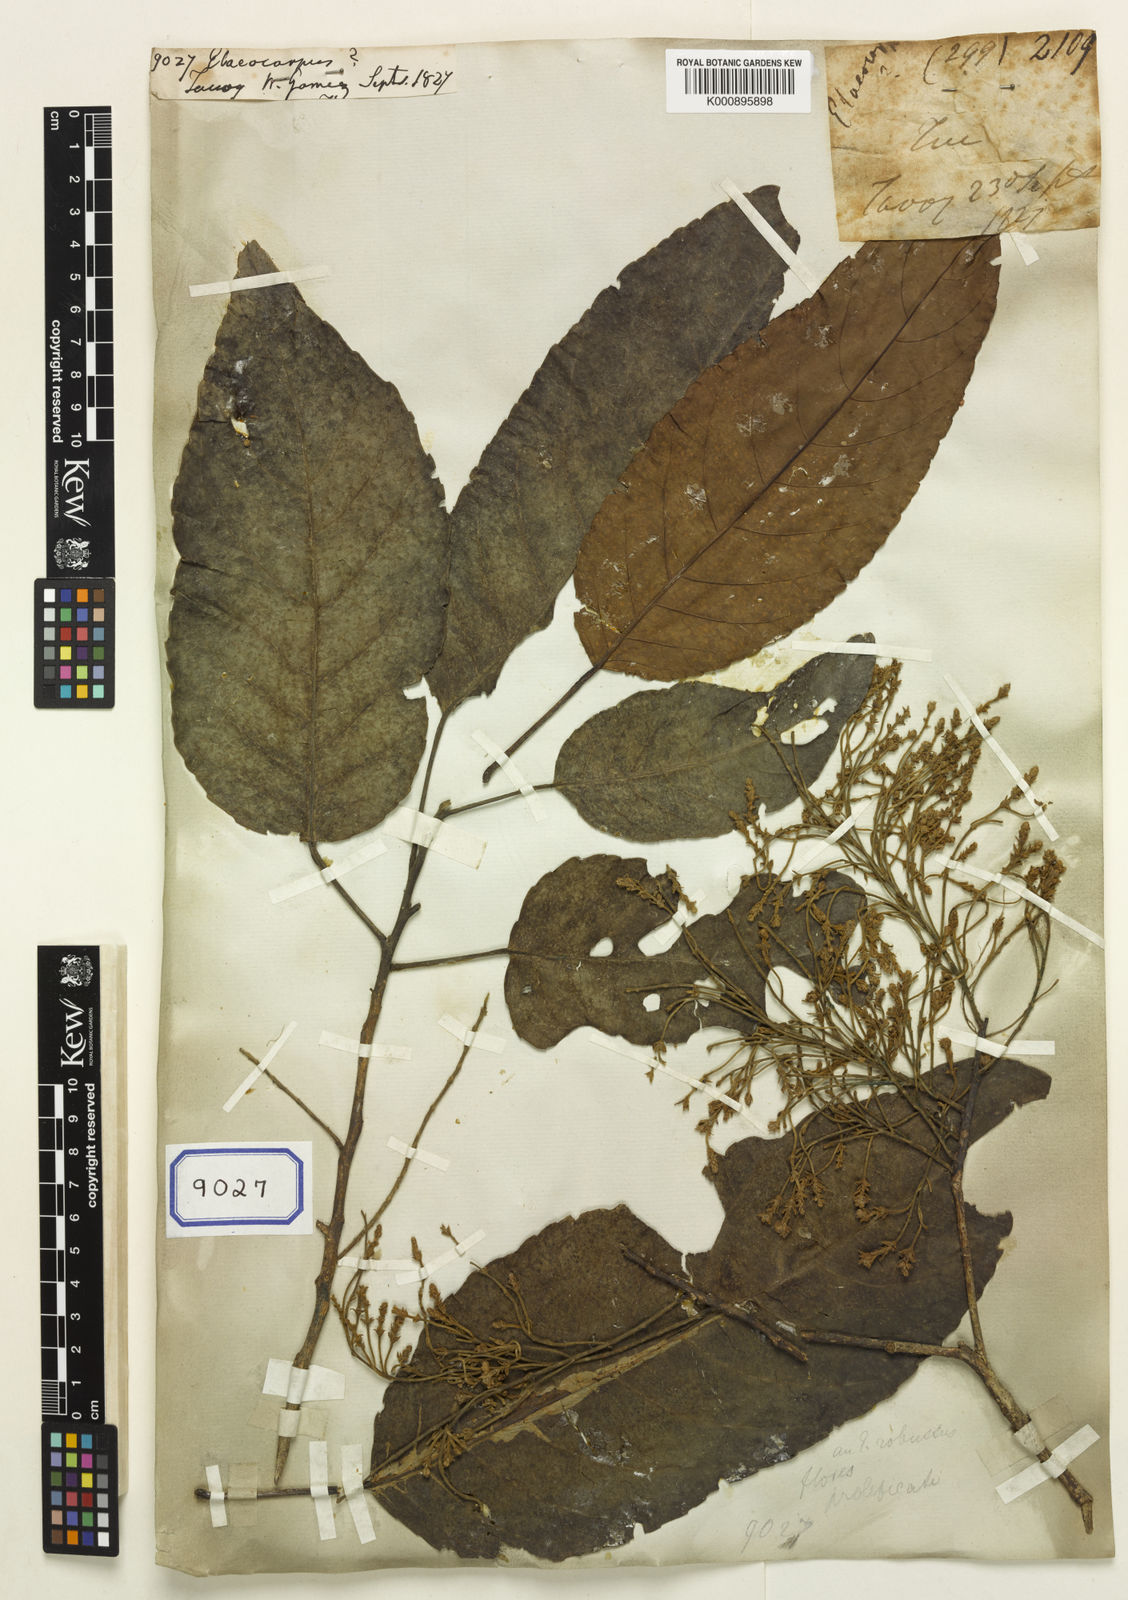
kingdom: Plantae
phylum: Tracheophyta
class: Magnoliopsida
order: Oxalidales
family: Elaeocarpaceae
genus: Elaeocarpus
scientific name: Elaeocarpus
